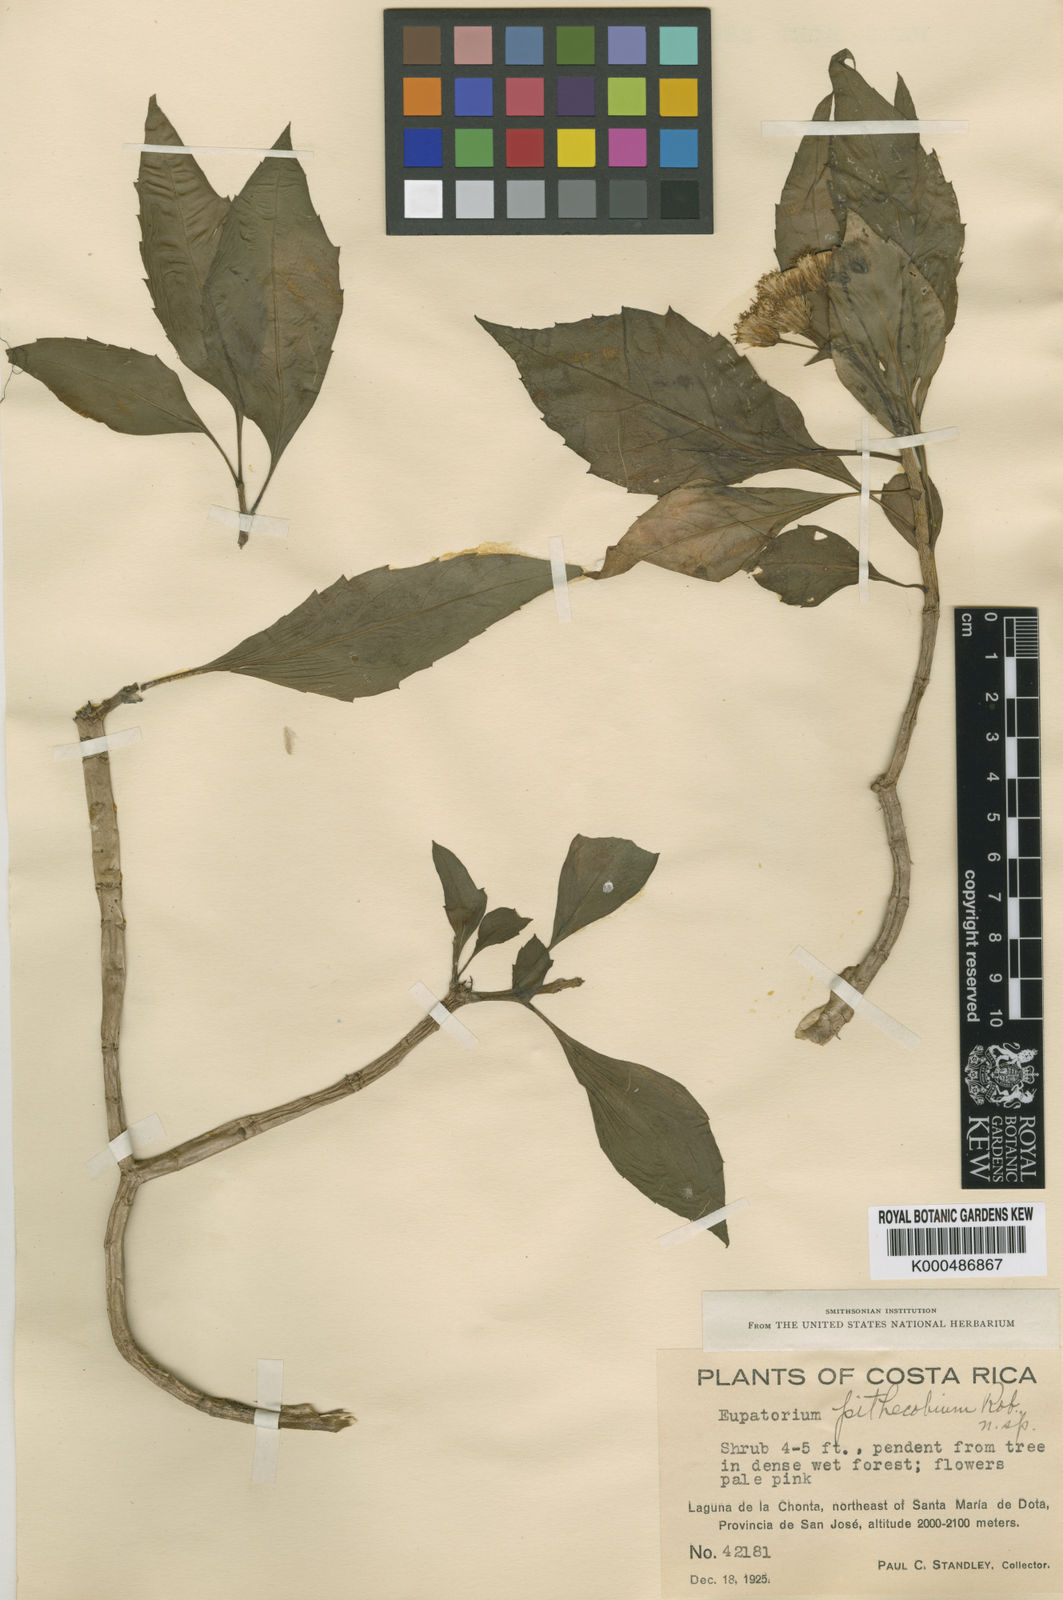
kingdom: Plantae
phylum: Tracheophyta
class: Magnoliopsida
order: Asterales
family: Asteraceae
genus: Neomirandea
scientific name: Neomirandea pithecobia
